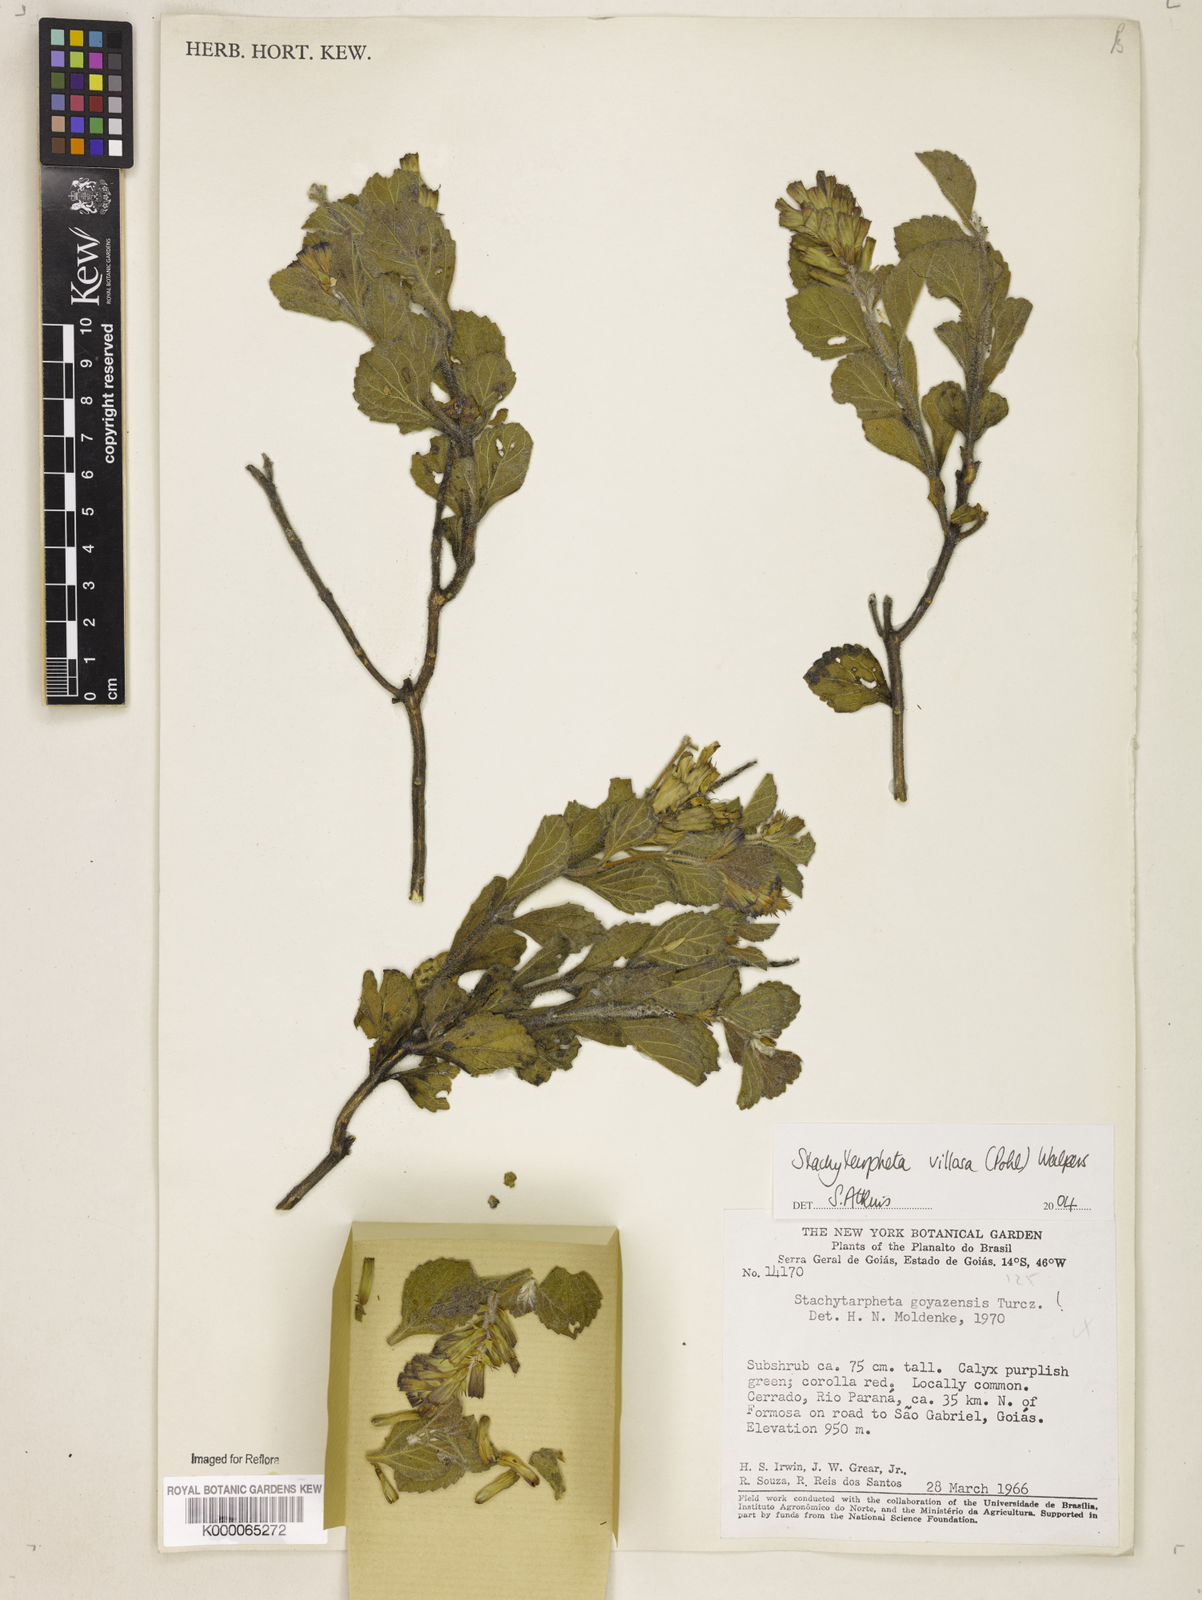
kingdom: Plantae
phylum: Tracheophyta
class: Magnoliopsida
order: Lamiales
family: Verbenaceae
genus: Stachytarpheta
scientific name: Stachytarpheta villosa
